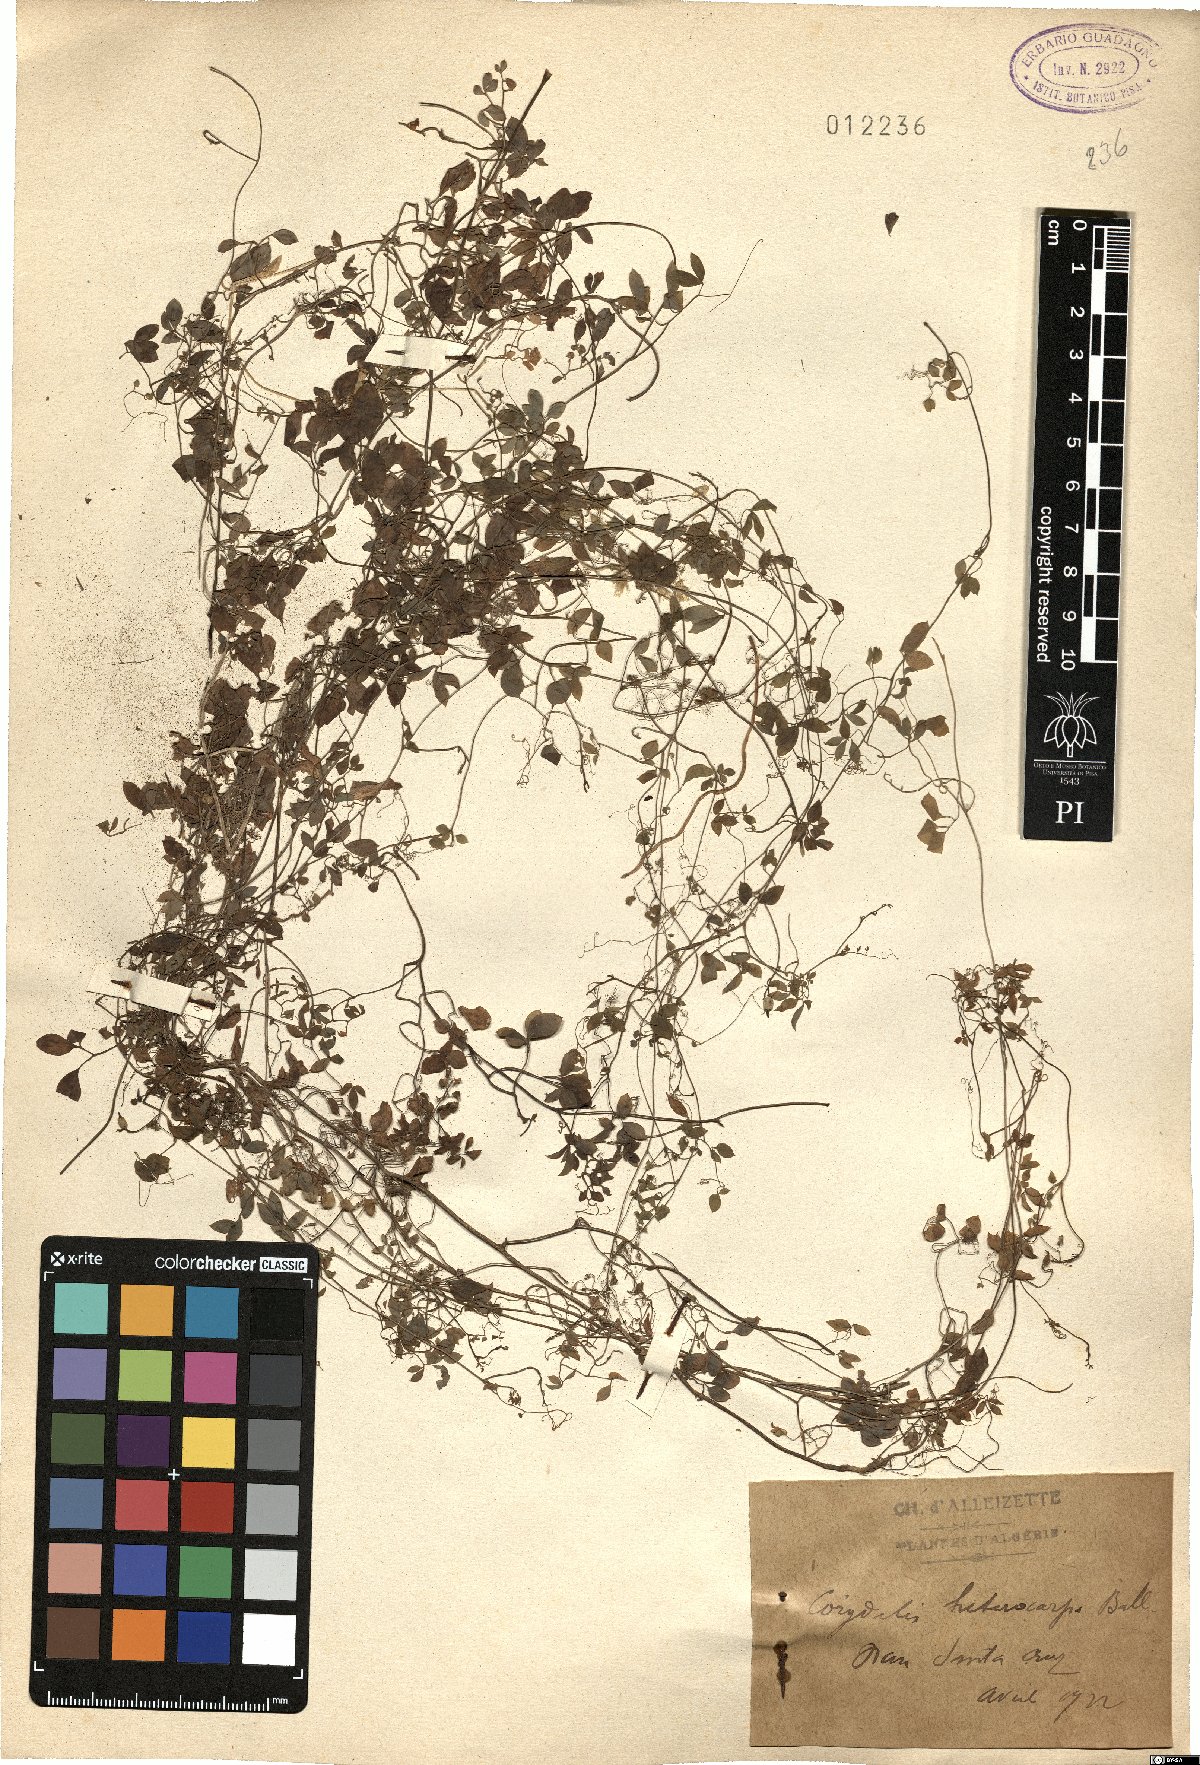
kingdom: Plantae
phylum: Tracheophyta
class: Magnoliopsida
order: Ranunculales
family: Papaveraceae
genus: Corydalis
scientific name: Corydalis heterocarpa
